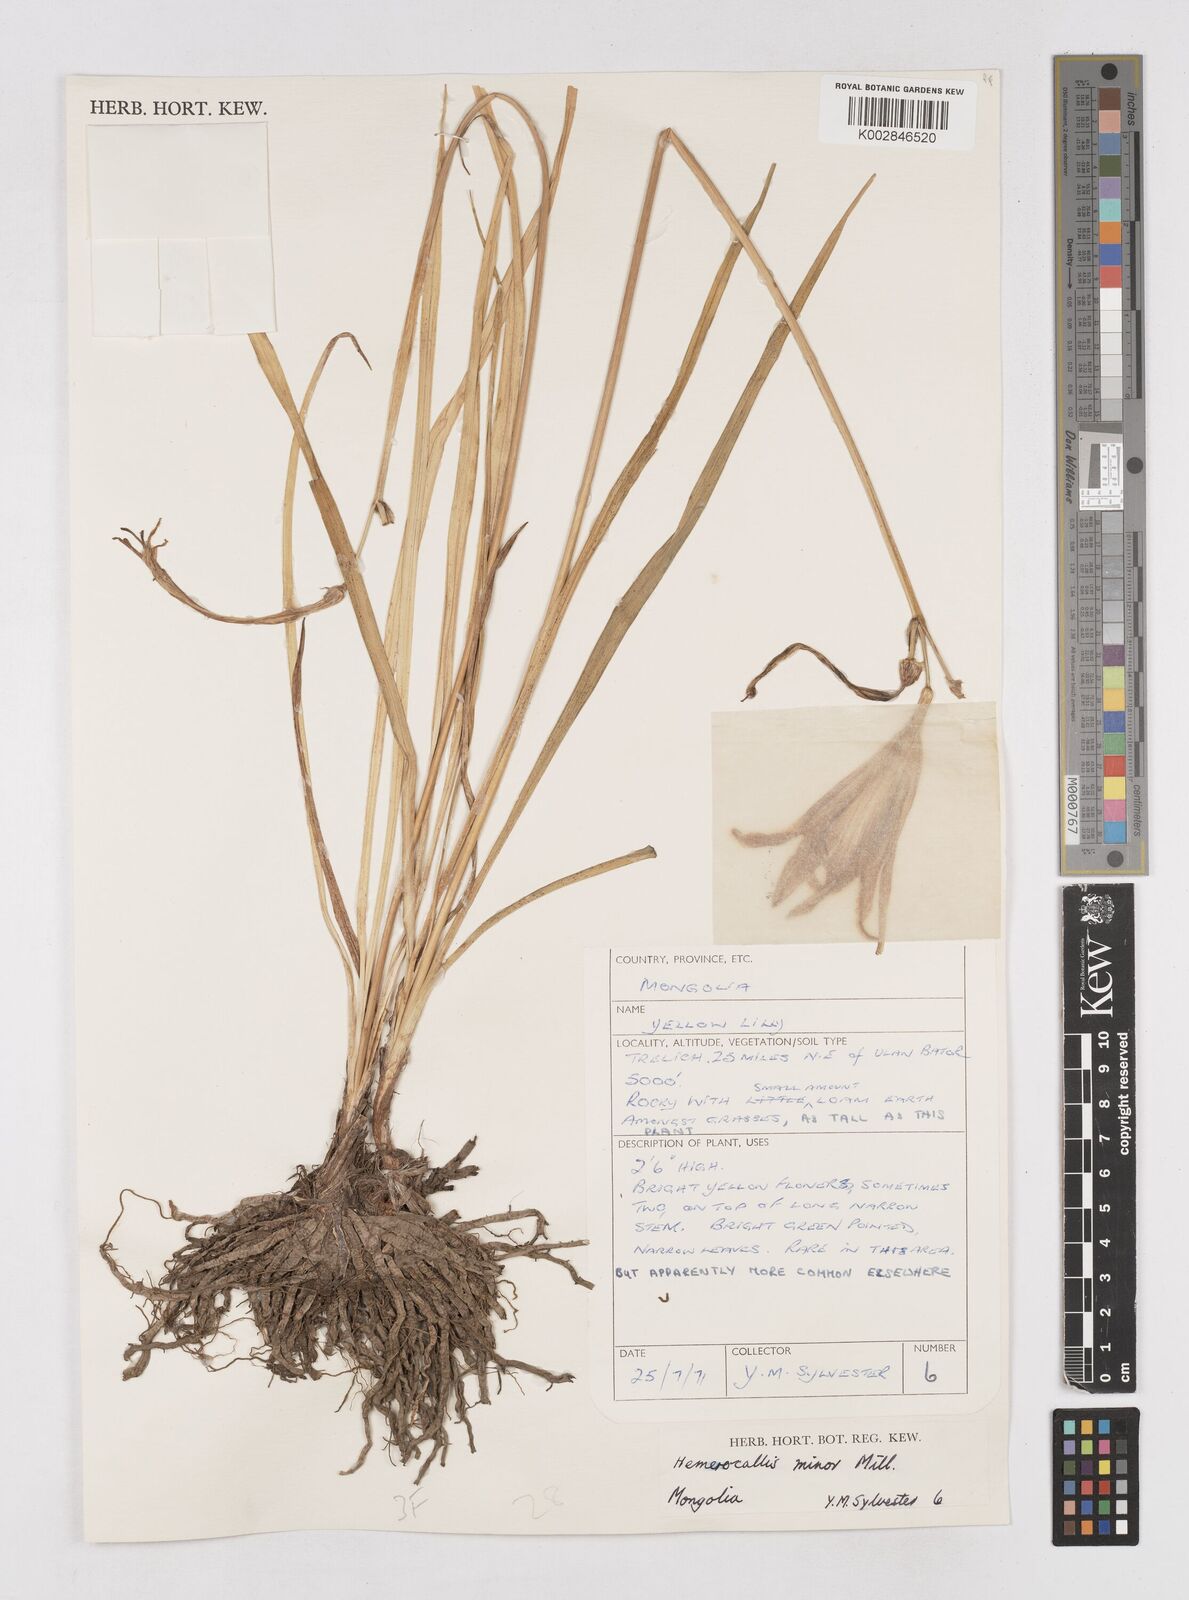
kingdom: Plantae
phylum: Tracheophyta
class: Liliopsida
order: Asparagales
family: Asphodelaceae
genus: Hemerocallis
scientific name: Hemerocallis minor
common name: Small daylily
